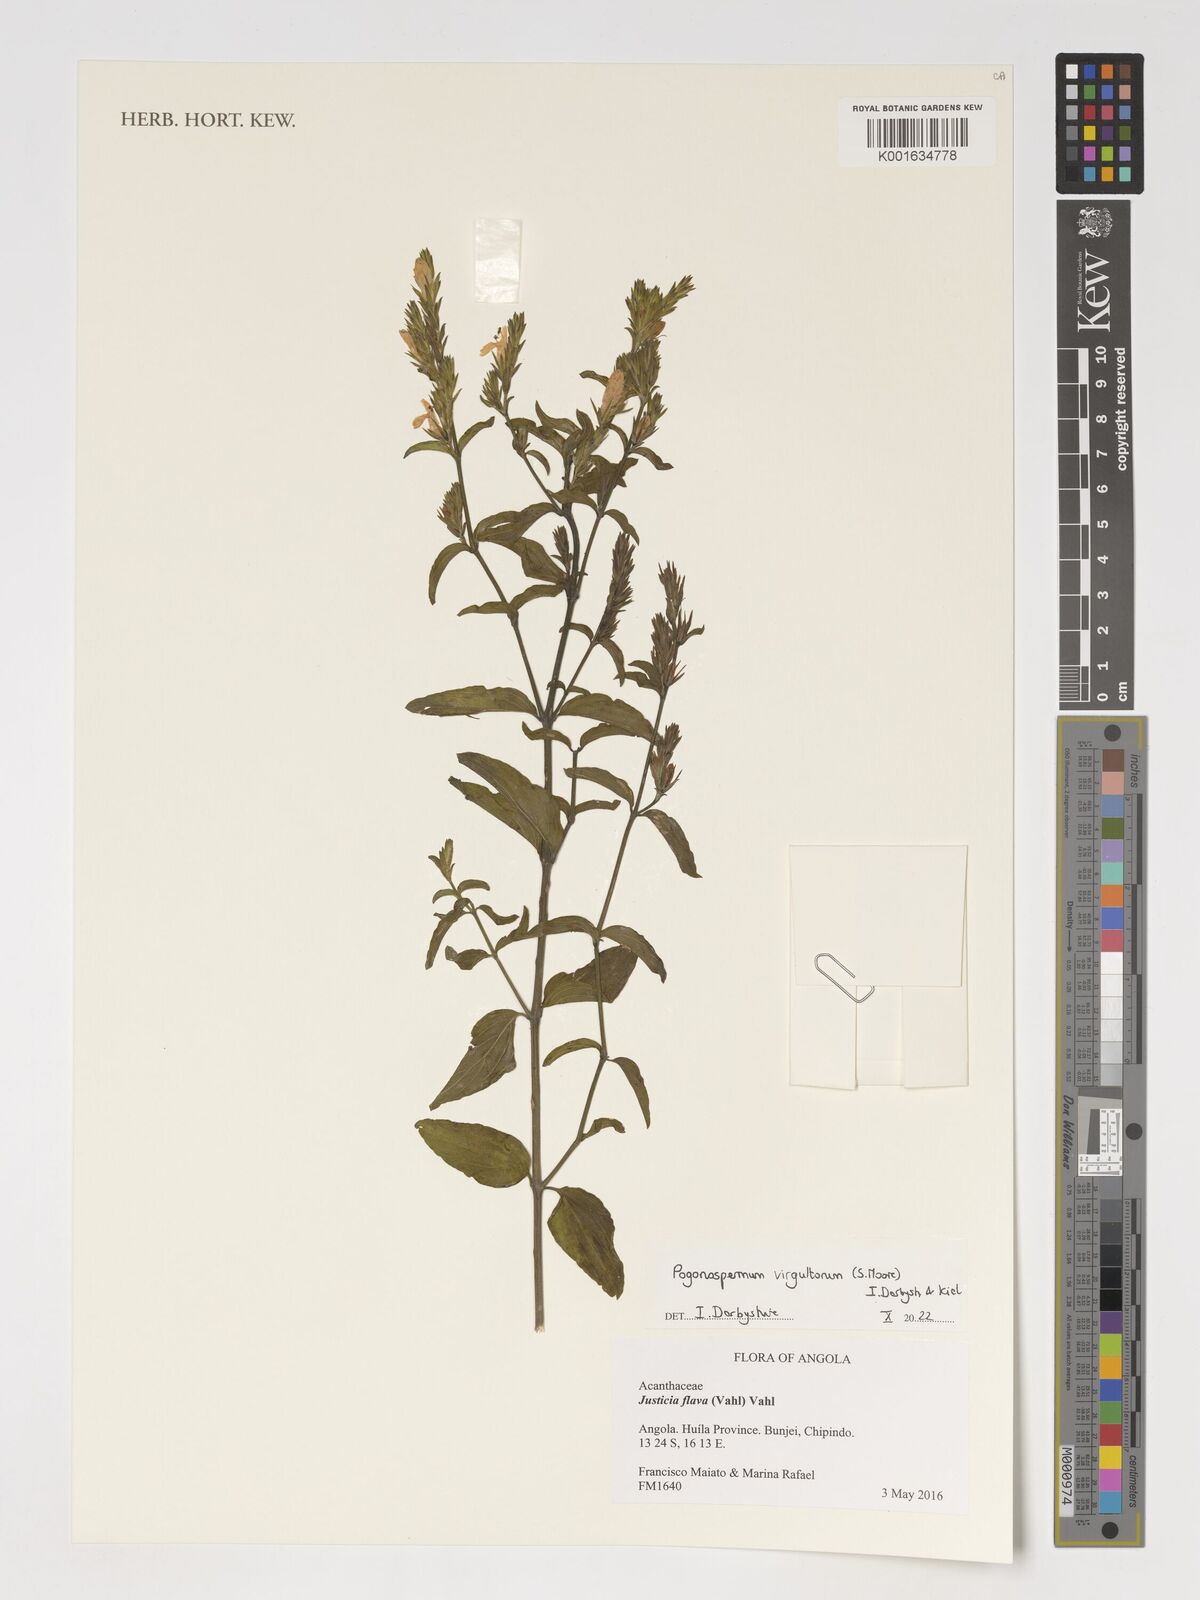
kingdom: Plantae
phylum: Tracheophyta
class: Magnoliopsida
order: Lamiales
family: Acanthaceae
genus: Pogonospermum
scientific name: Pogonospermum
